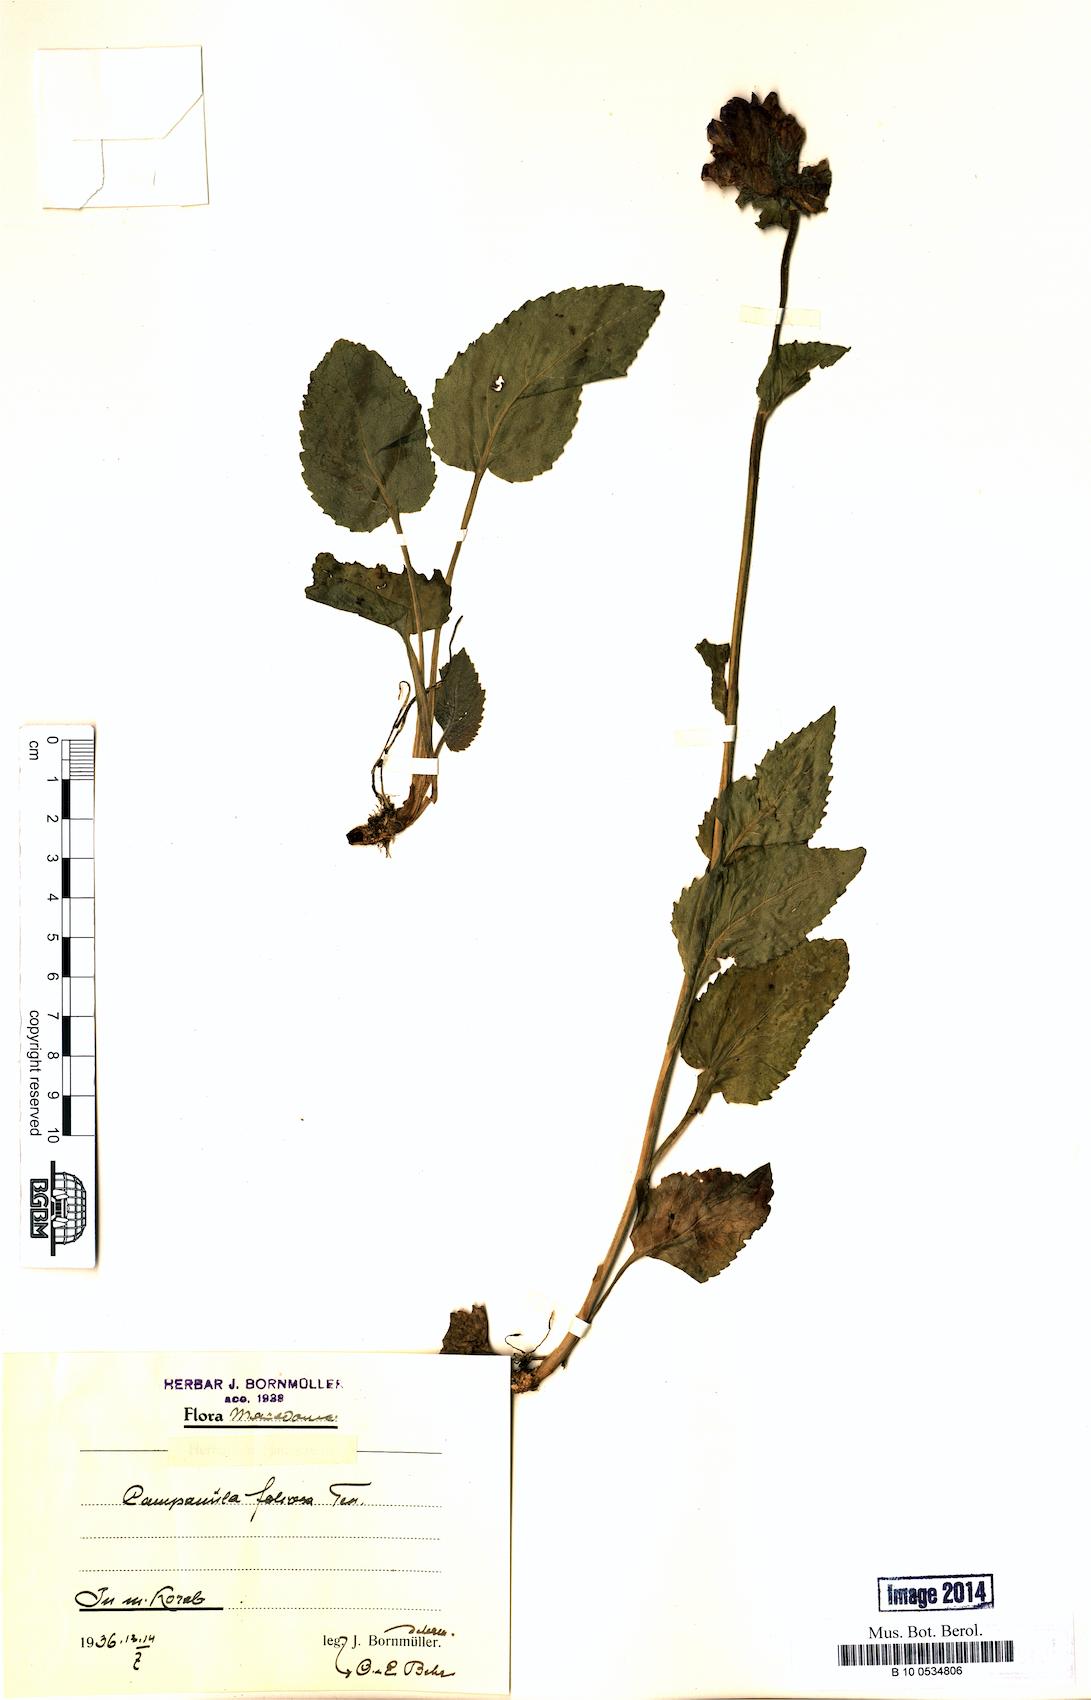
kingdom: Plantae
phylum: Tracheophyta
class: Magnoliopsida
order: Asterales
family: Campanulaceae
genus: Campanula
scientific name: Campanula foliosa
